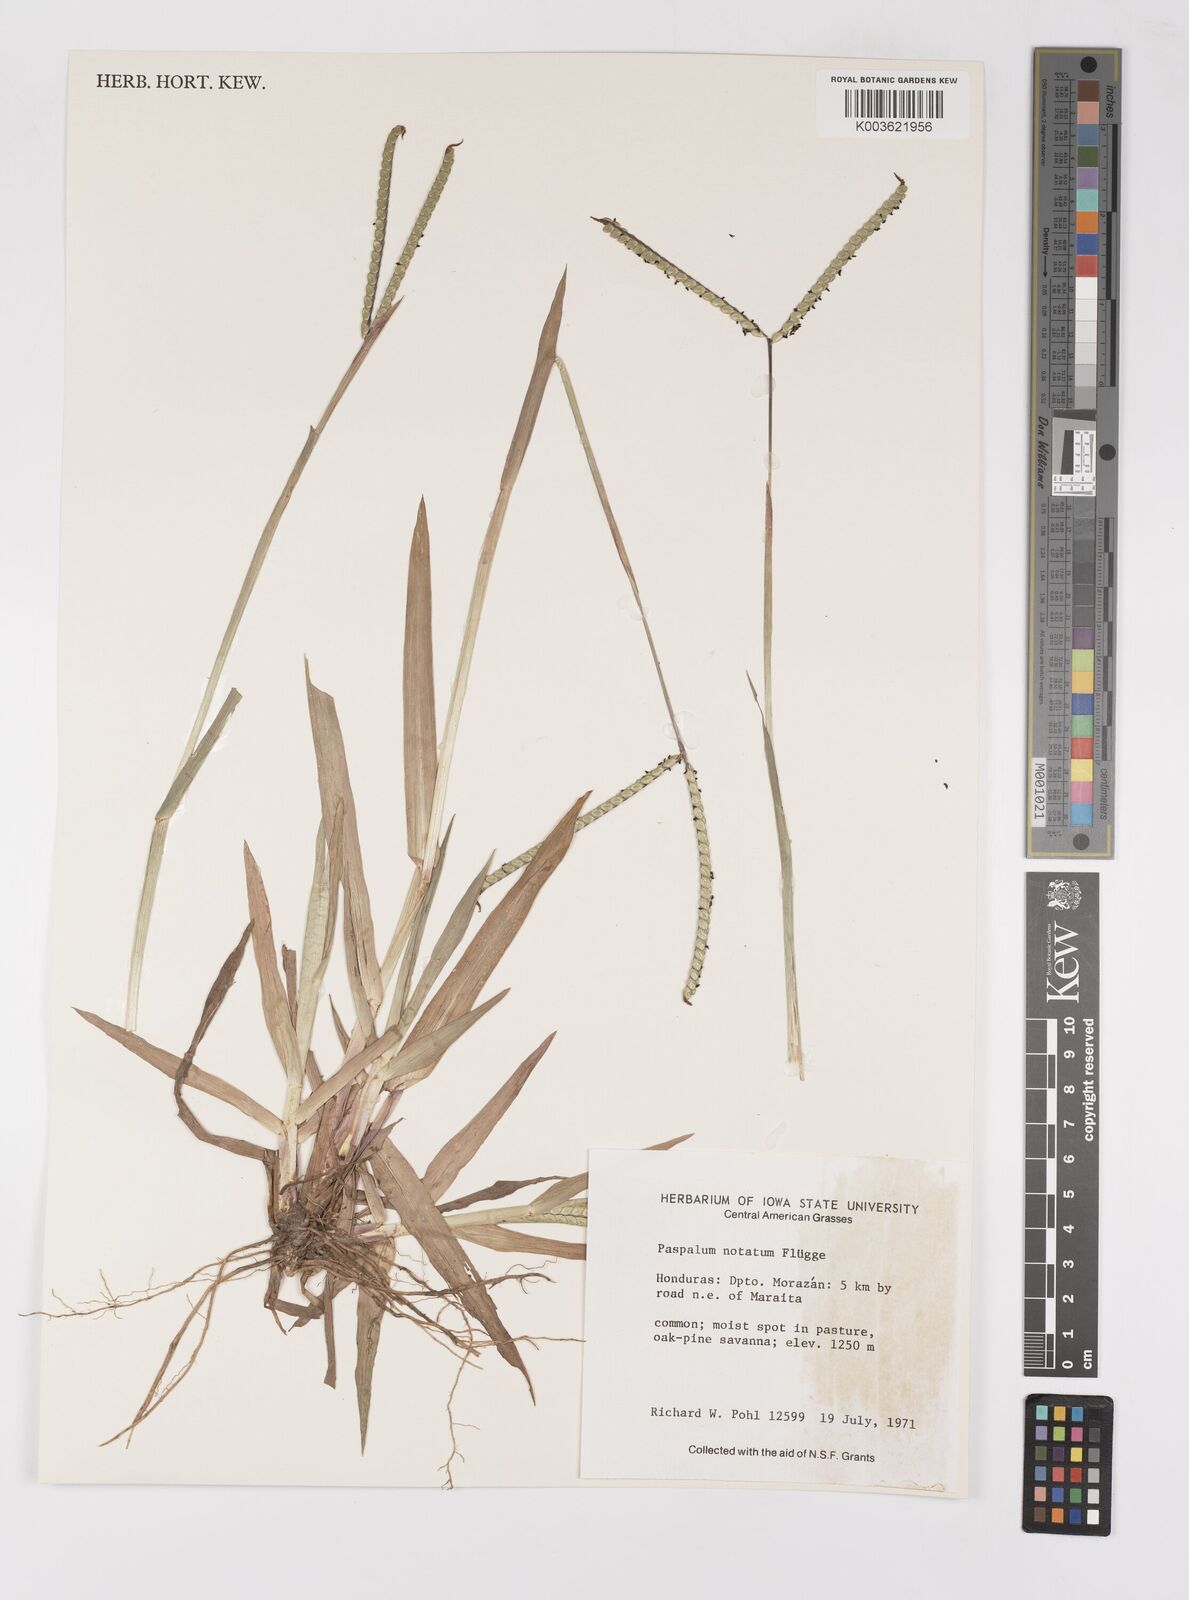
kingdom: Plantae
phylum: Tracheophyta
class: Liliopsida
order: Poales
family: Poaceae
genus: Paspalum
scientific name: Paspalum notatum
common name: Bahiagrass
